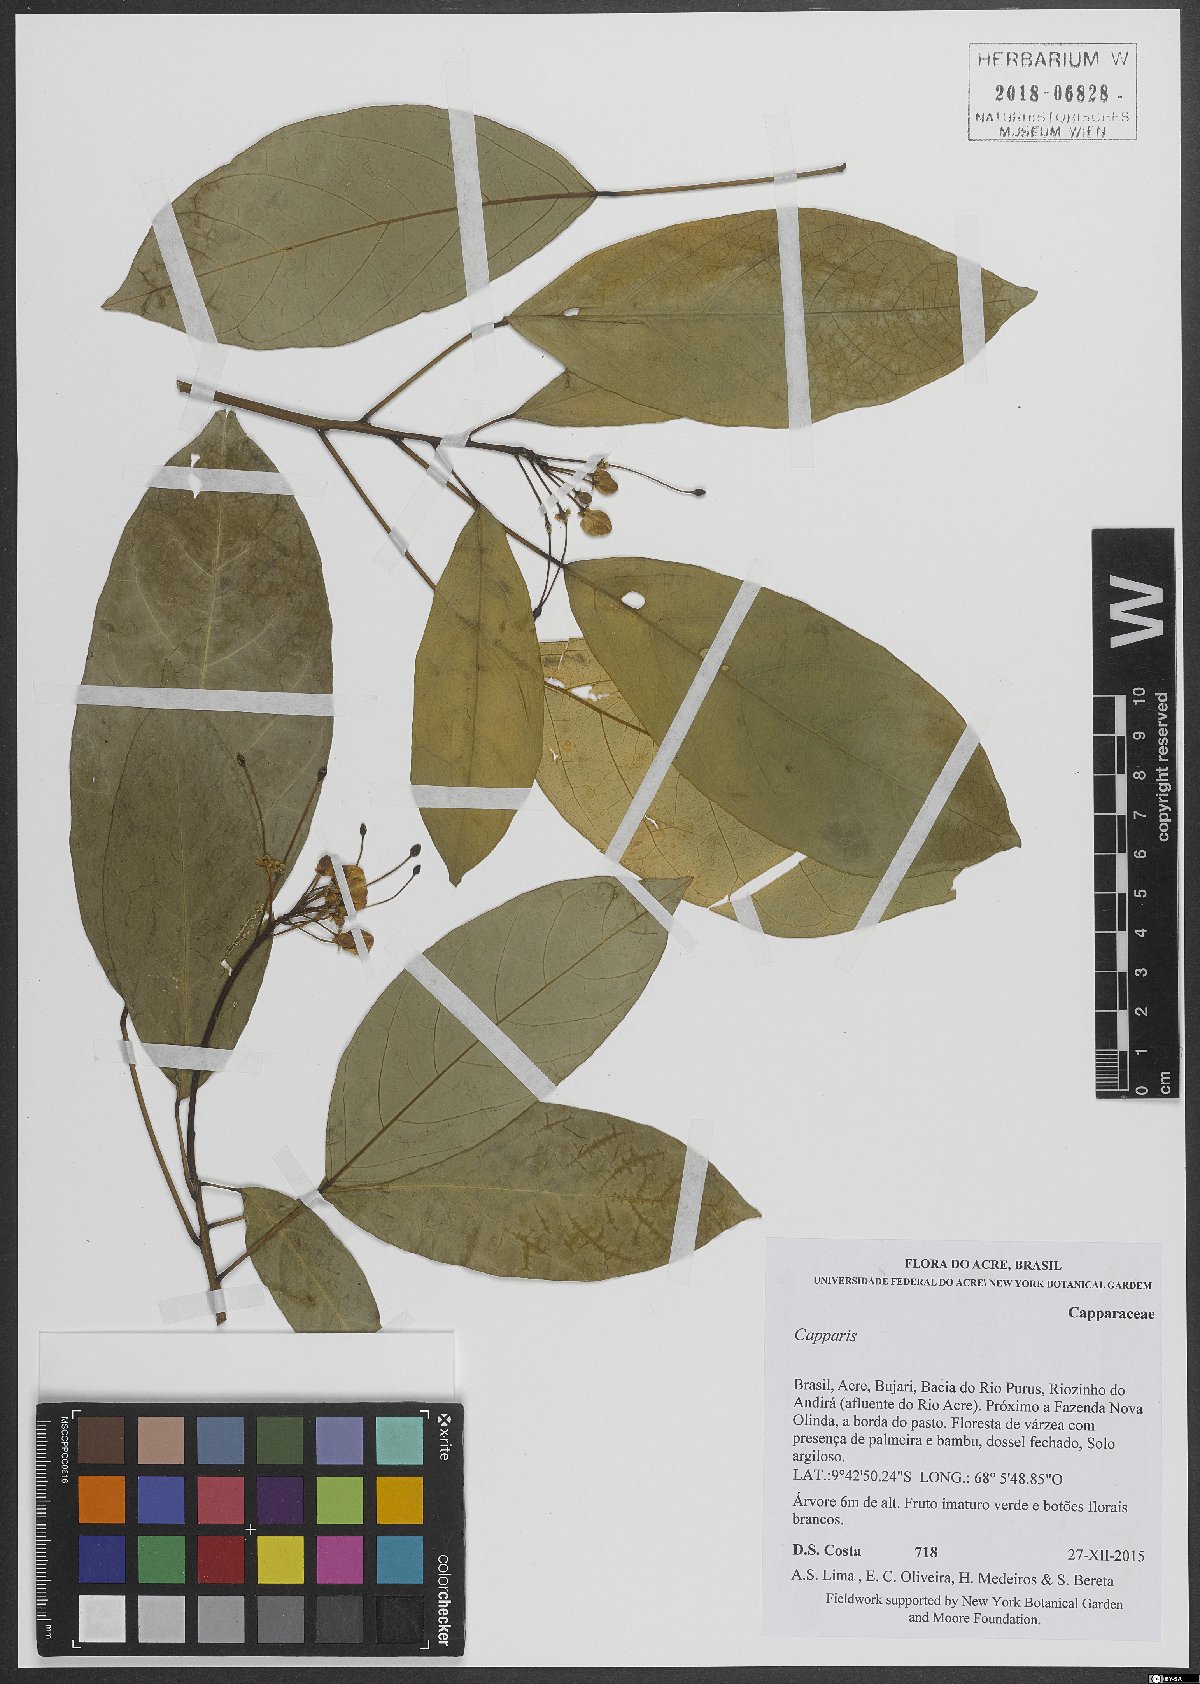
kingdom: Plantae
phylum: Tracheophyta
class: Magnoliopsida
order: Brassicales
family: Capparaceae
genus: Capparis
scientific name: Capparis
